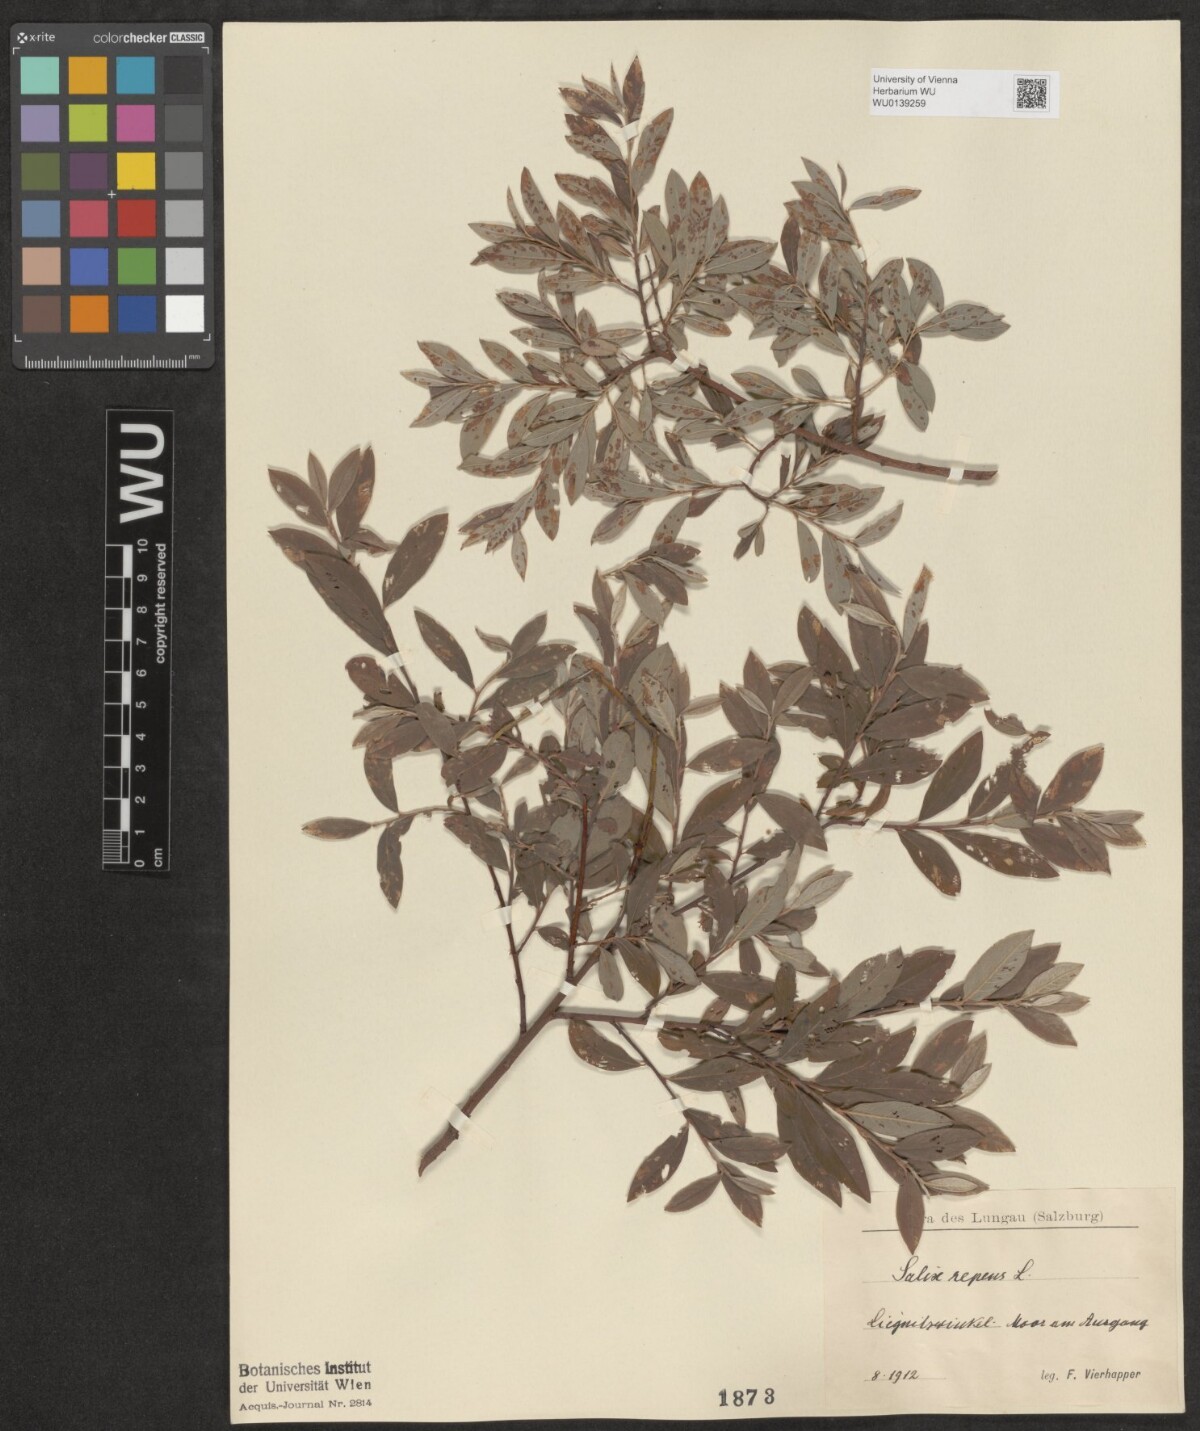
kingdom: Plantae
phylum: Tracheophyta
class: Magnoliopsida
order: Malpighiales
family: Salicaceae
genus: Salix
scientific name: Salix repens
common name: Creeping willow
